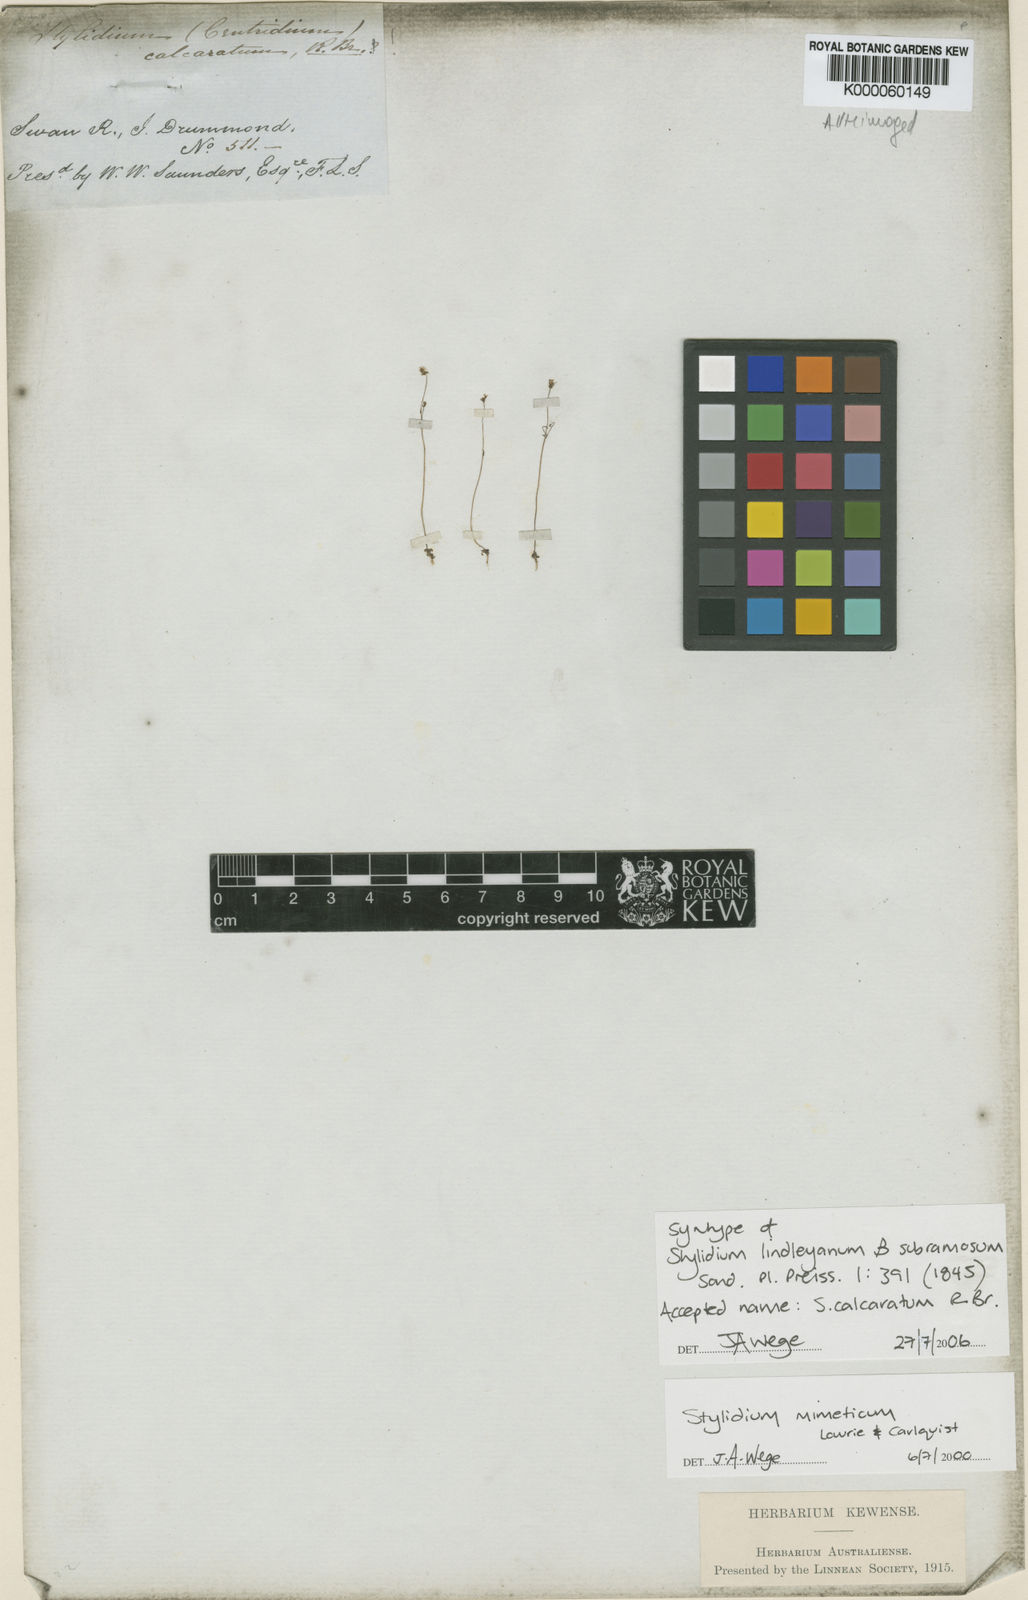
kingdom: Plantae
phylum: Tracheophyta
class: Magnoliopsida
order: Asterales
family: Stylidiaceae
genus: Stylidium
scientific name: Stylidium calcaratum
